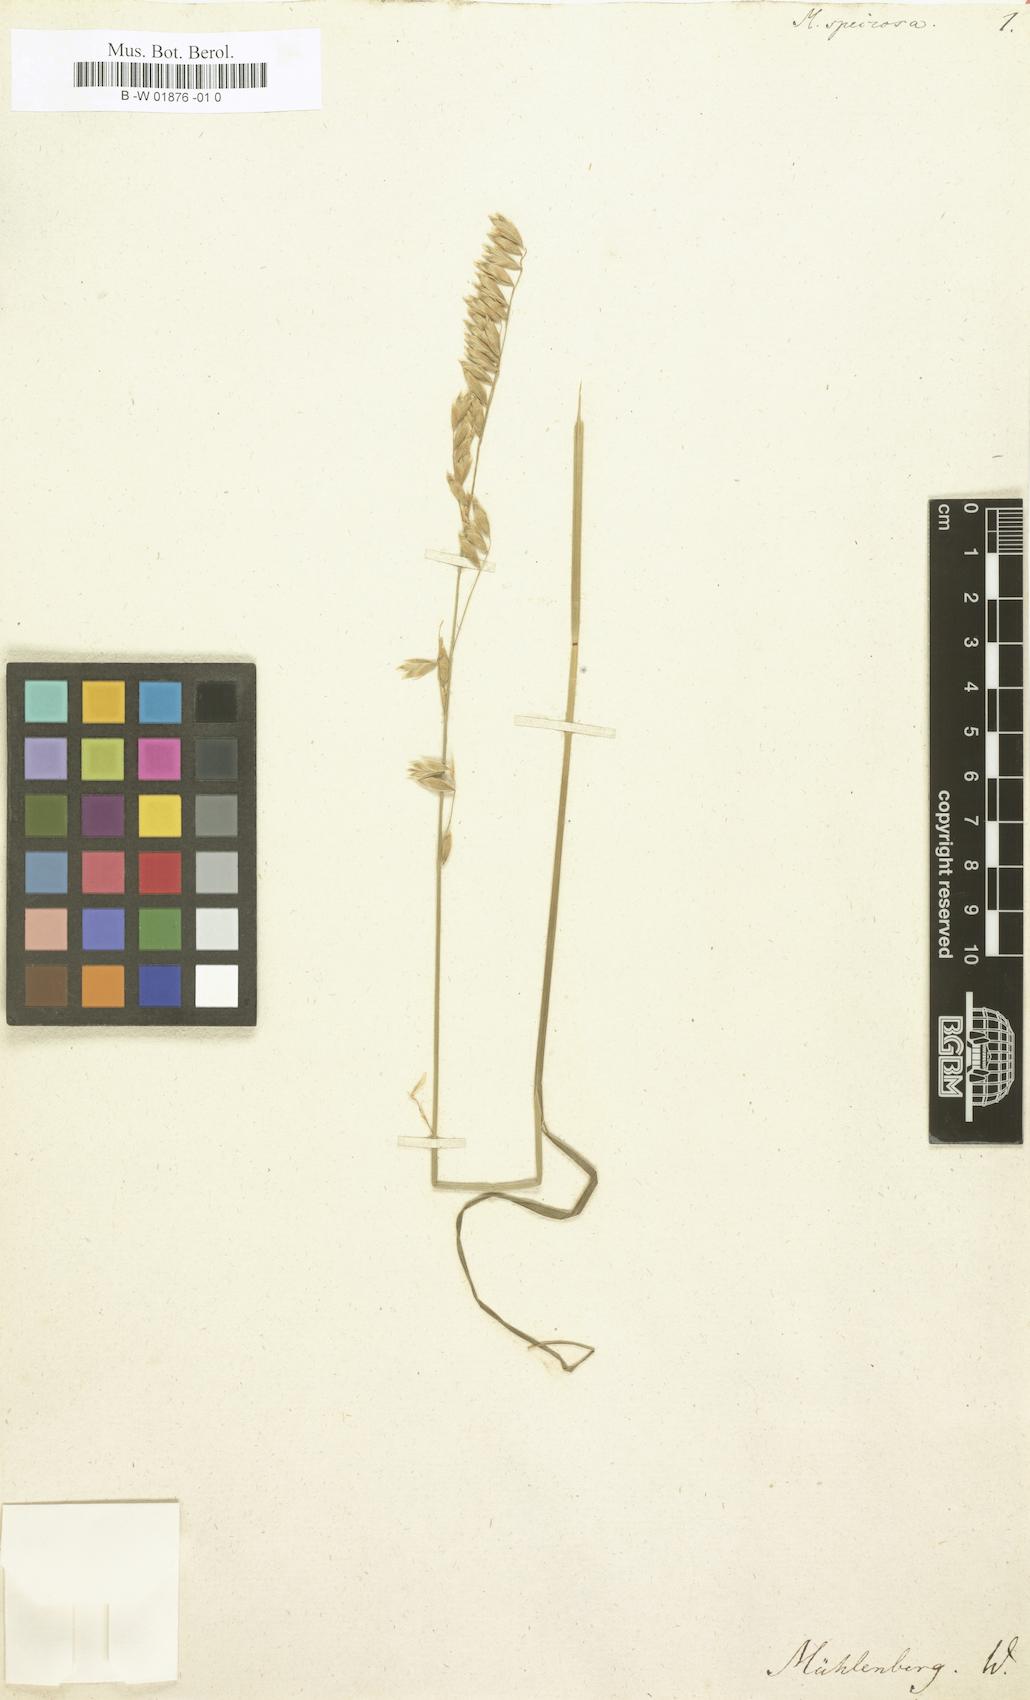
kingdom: Plantae
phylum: Tracheophyta
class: Liliopsida
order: Poales
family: Poaceae
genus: Melica
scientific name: Melica mutica
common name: Two-flower melic
